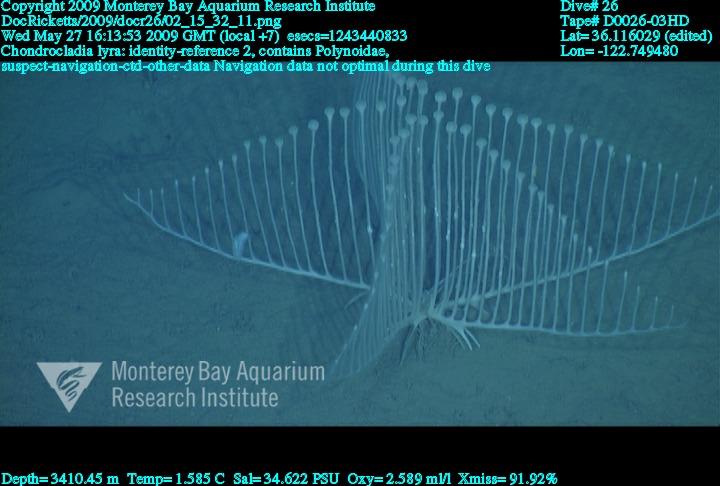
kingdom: Animalia
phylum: Porifera
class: Demospongiae
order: Poecilosclerida
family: Cladorhizidae
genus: Chondrocladia
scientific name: Chondrocladia lyra
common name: Harp sponge
